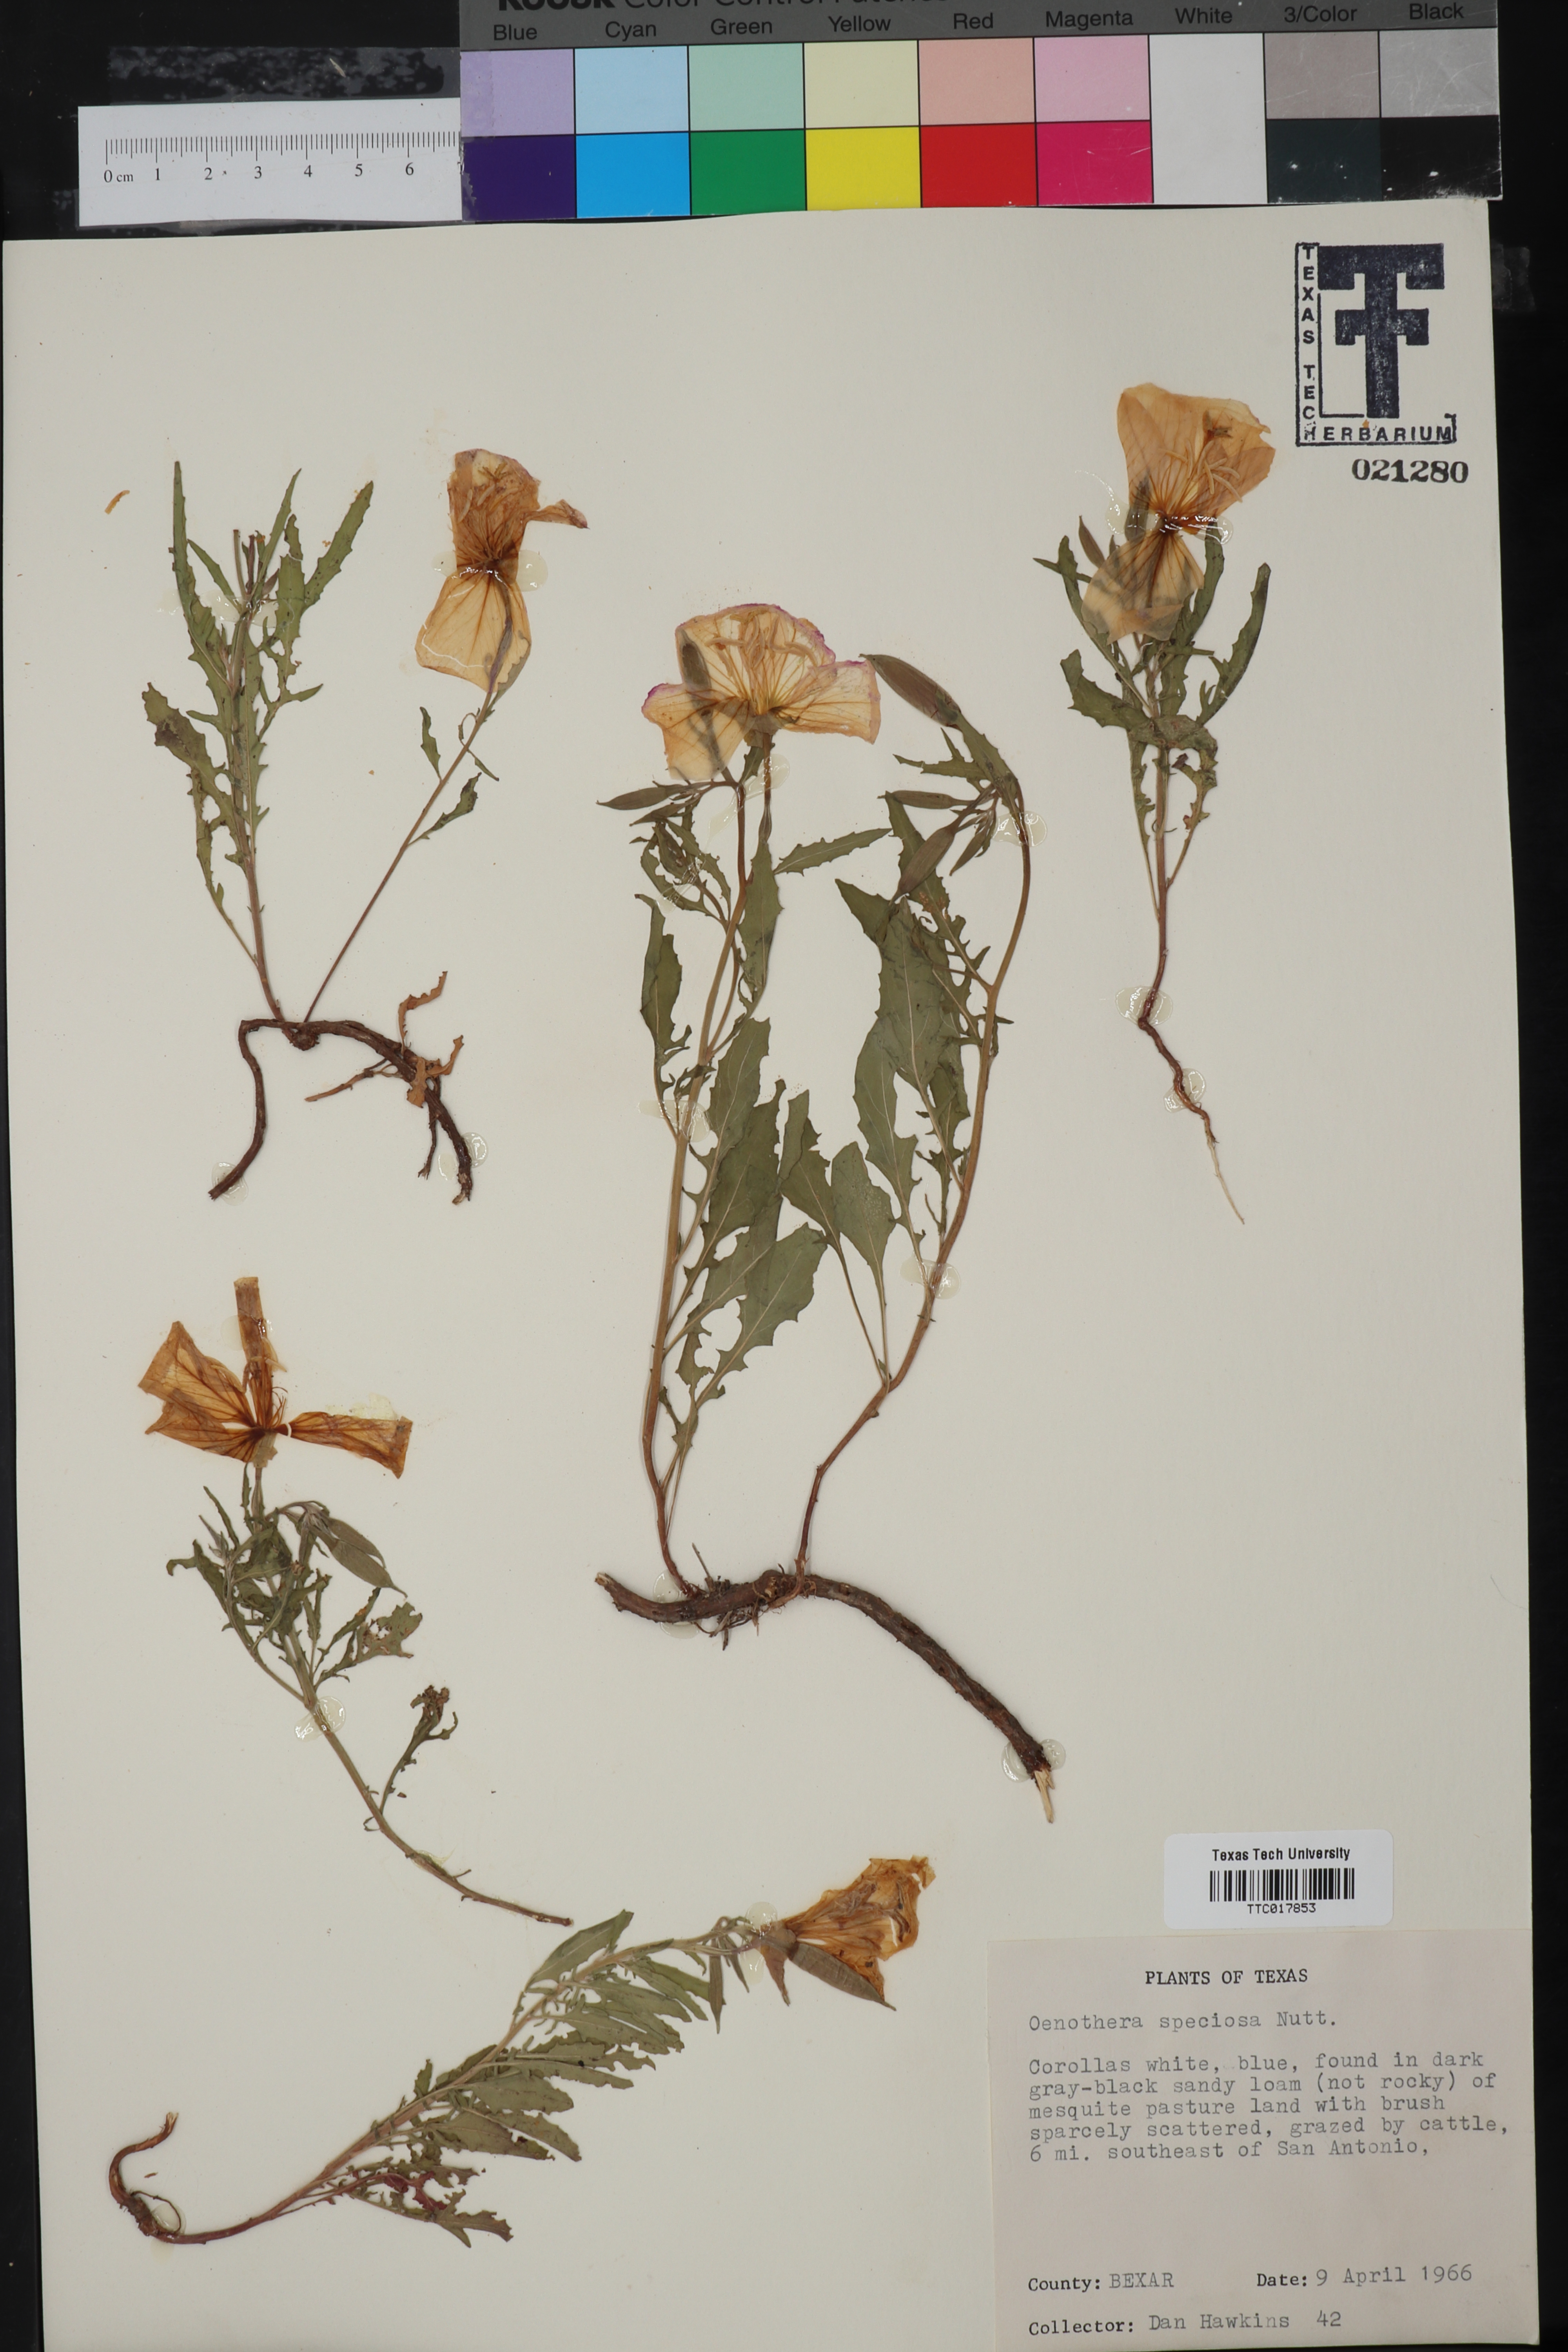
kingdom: Plantae
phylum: Tracheophyta
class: Magnoliopsida
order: Myrtales
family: Onagraceae
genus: Oenothera
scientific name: Oenothera speciosa
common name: White evening-primrose
